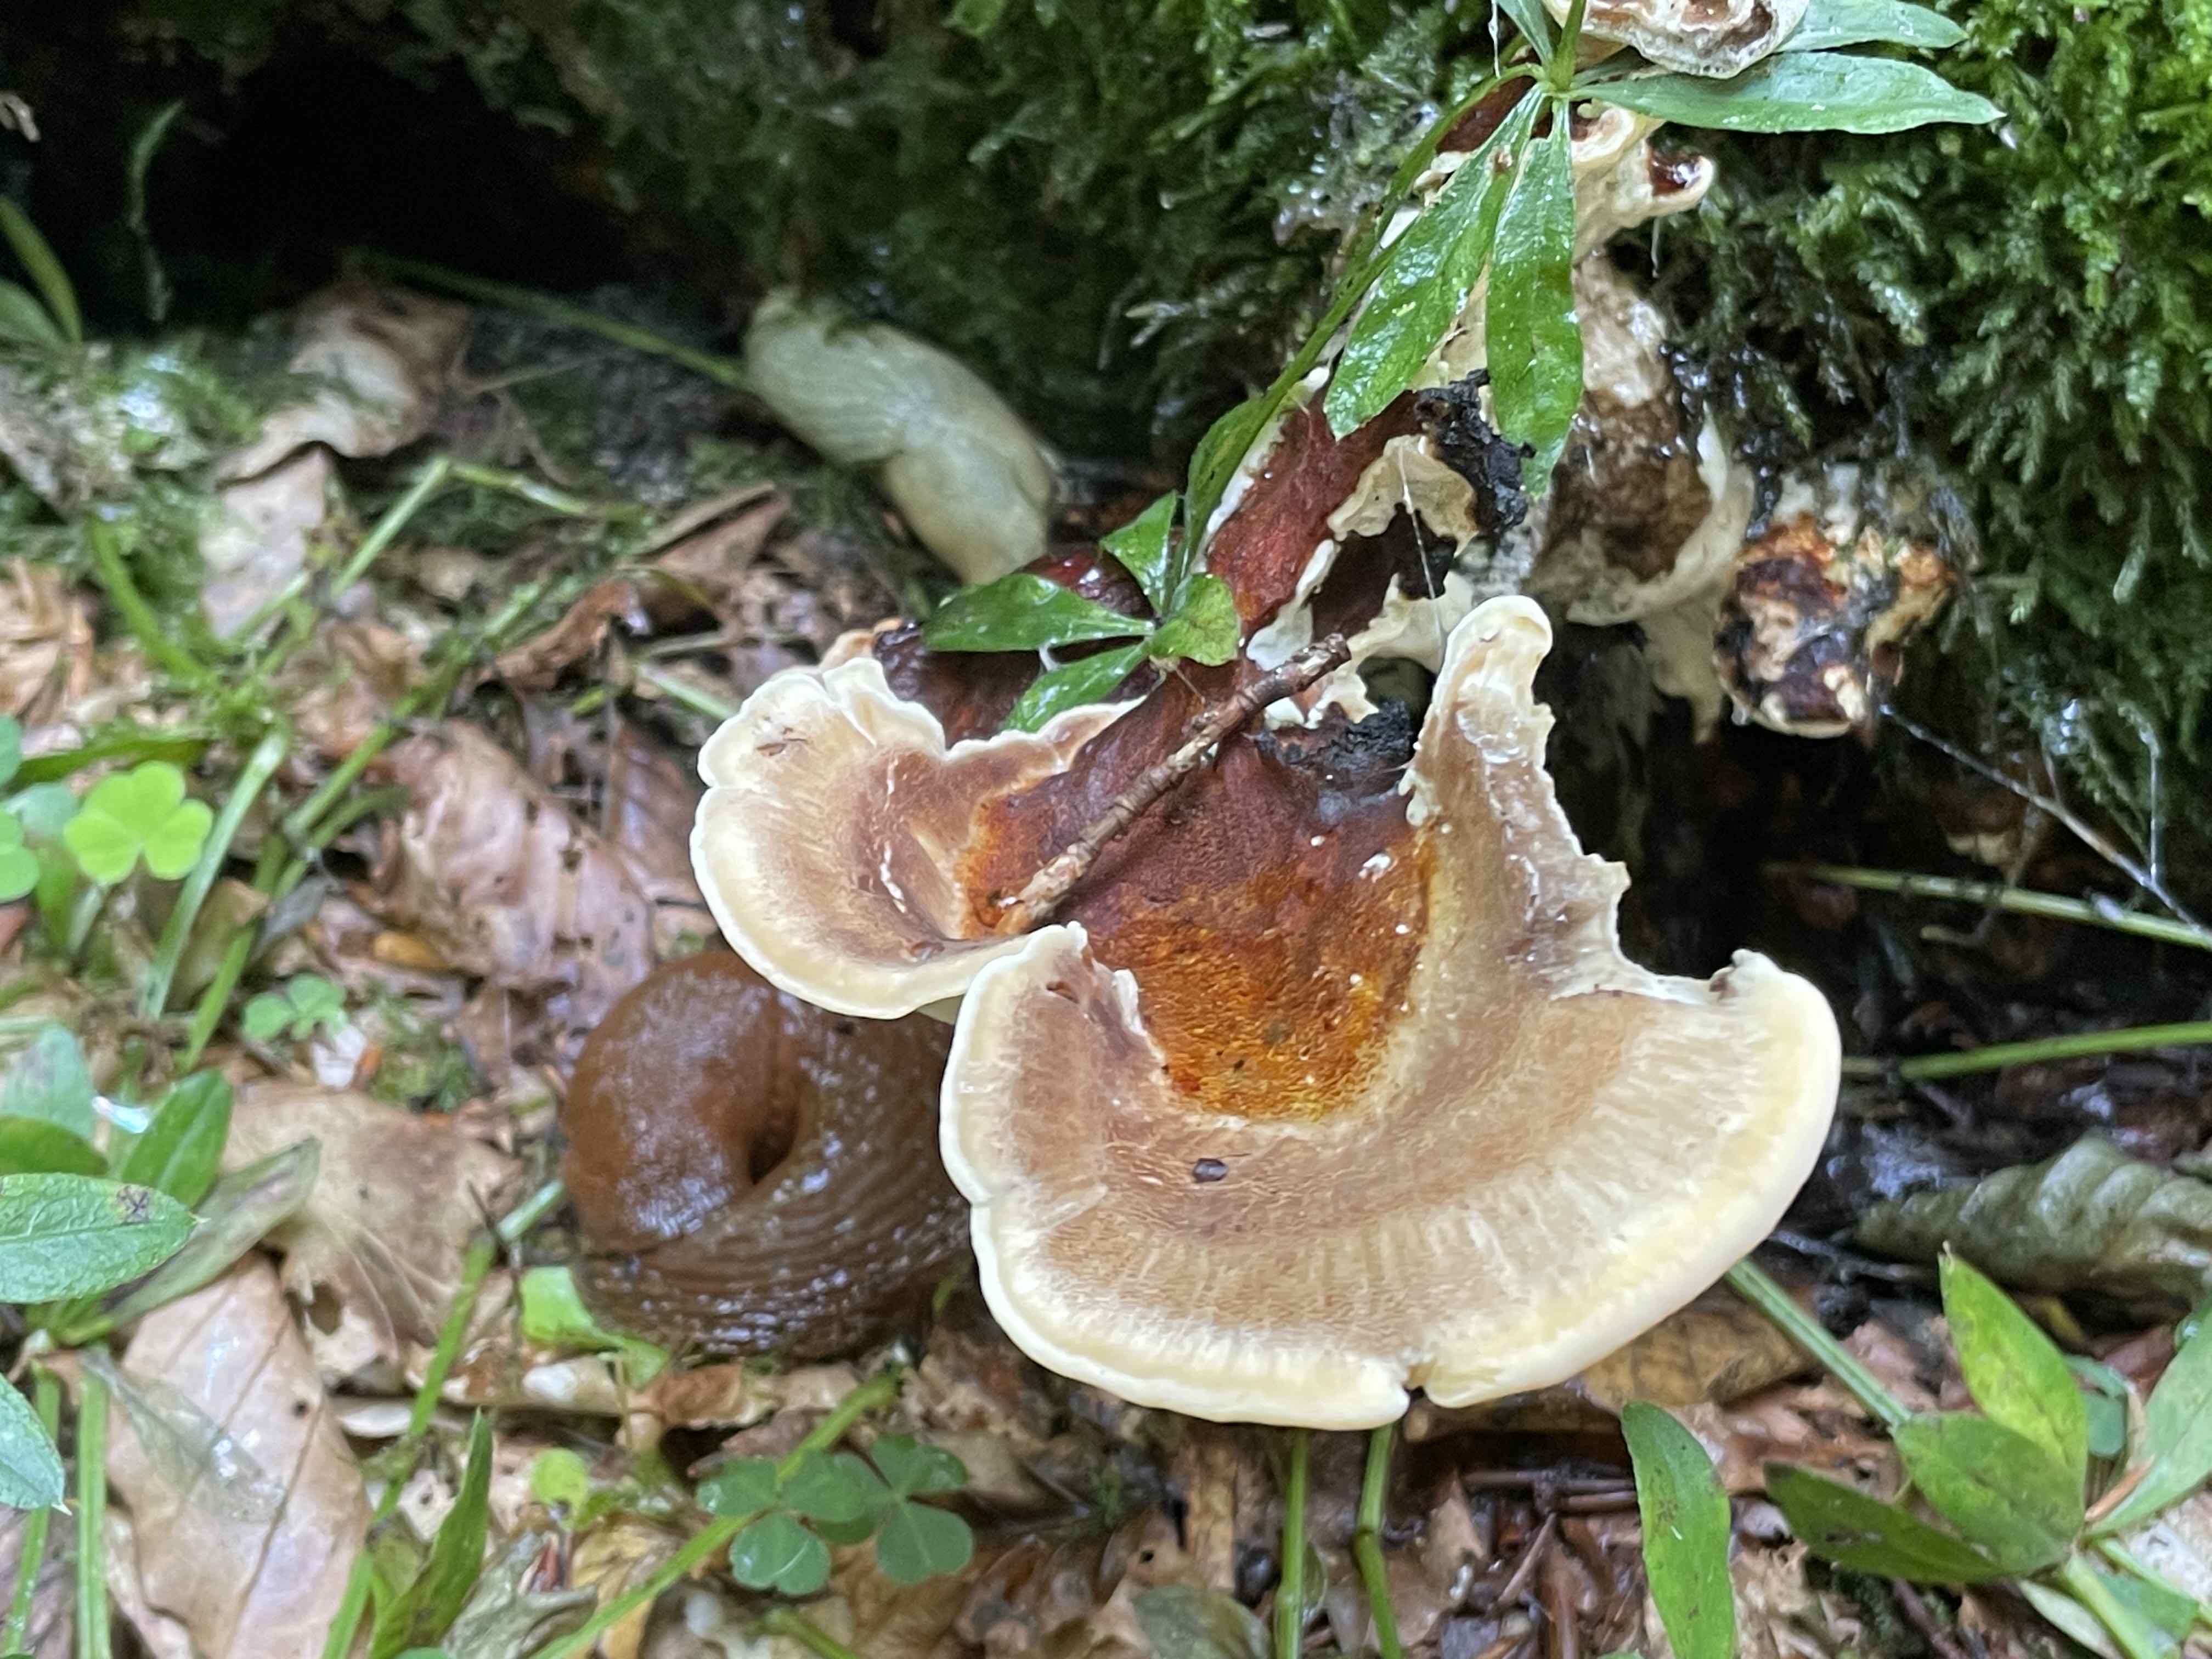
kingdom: Fungi
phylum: Basidiomycota
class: Agaricomycetes
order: Polyporales
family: Meripilaceae
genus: Meripilus
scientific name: Meripilus giganteus
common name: kæmpeporesvamp
